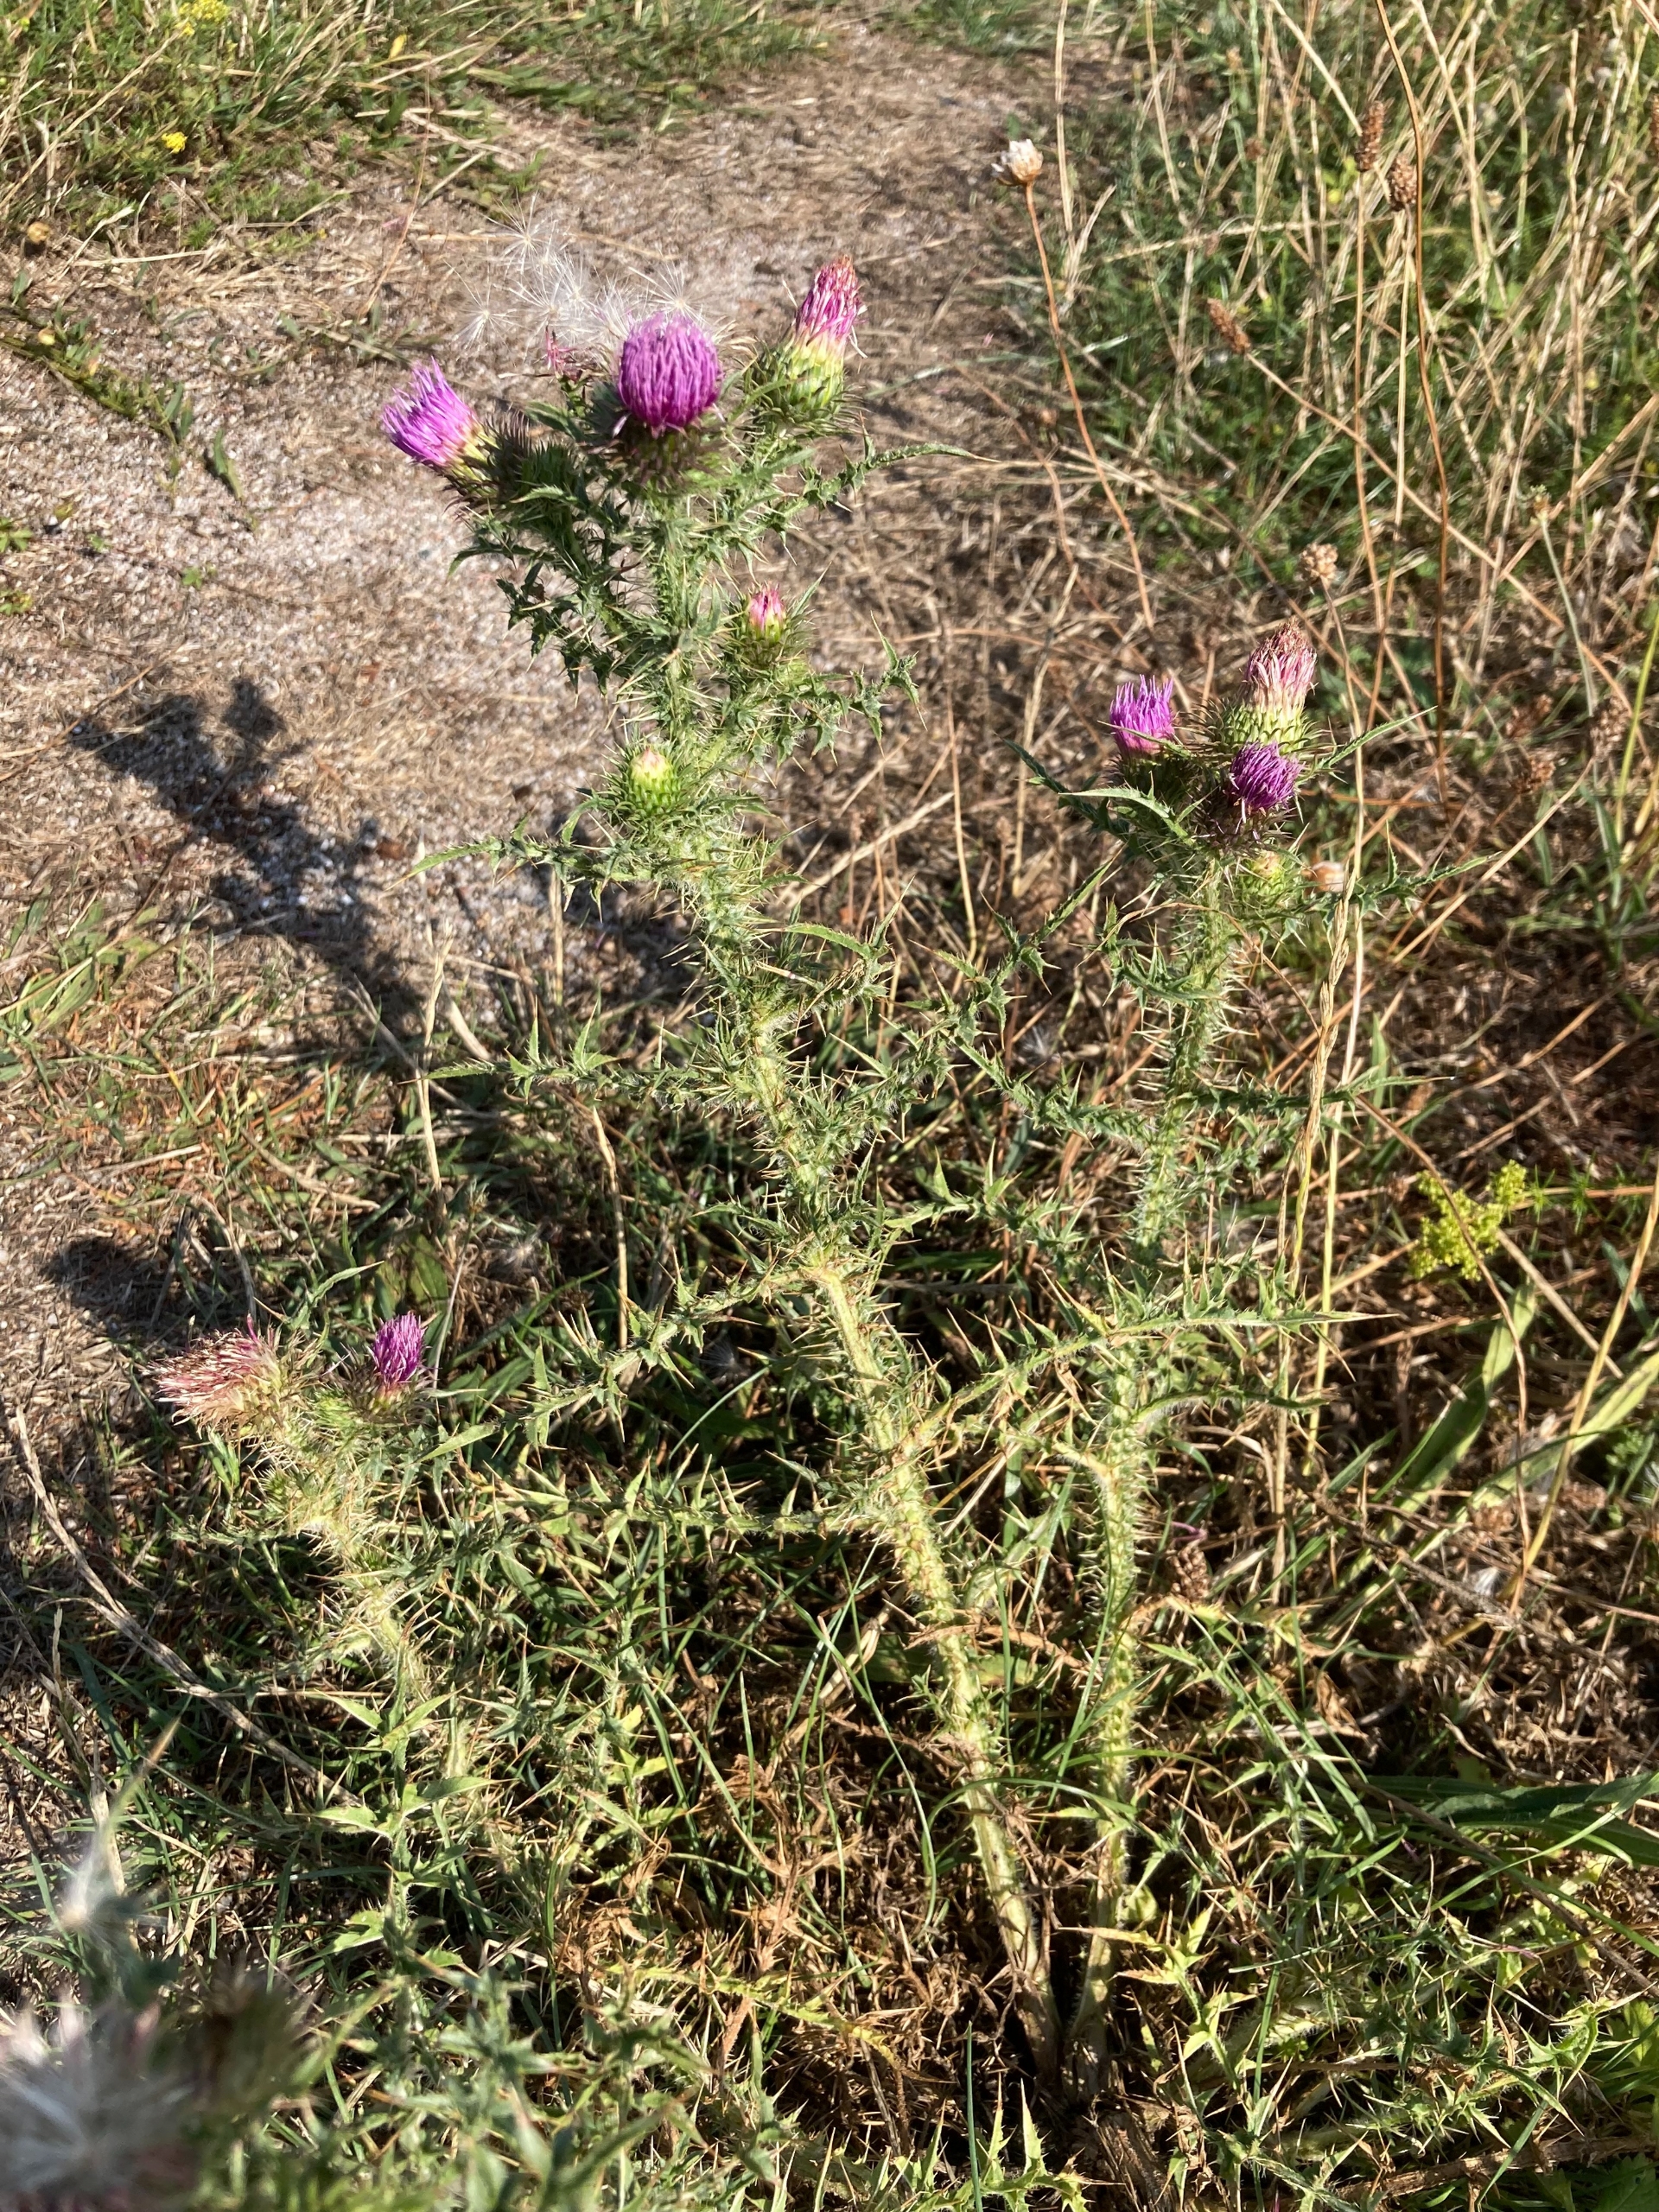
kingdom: Plantae
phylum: Tracheophyta
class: Magnoliopsida
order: Asterales
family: Asteraceae
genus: Carduus
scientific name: Carduus acanthoides
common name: Tornet tidsel
